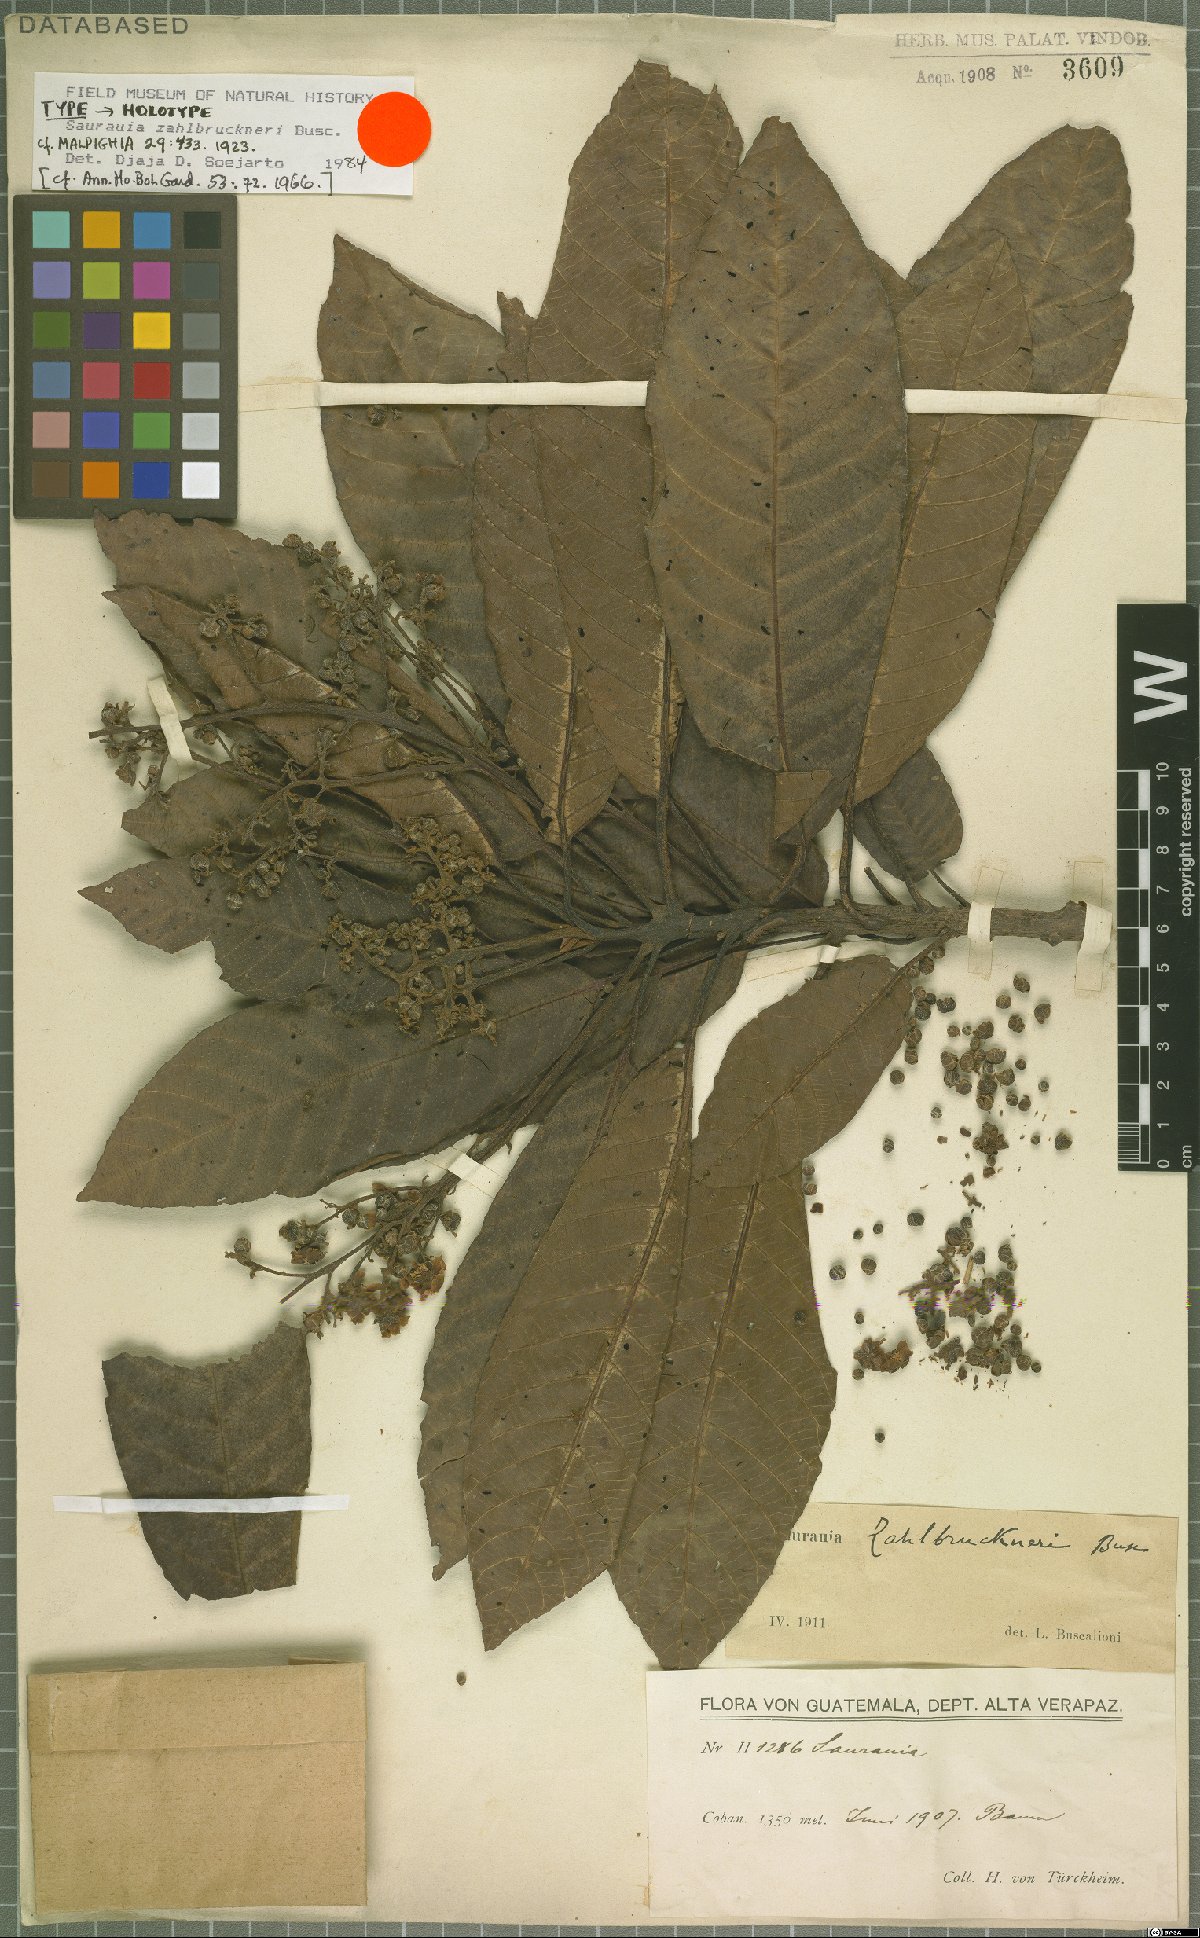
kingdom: Plantae
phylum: Tracheophyta
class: Magnoliopsida
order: Ericales
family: Actinidiaceae
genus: Saurauia
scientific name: Saurauia zahlbruckneri
